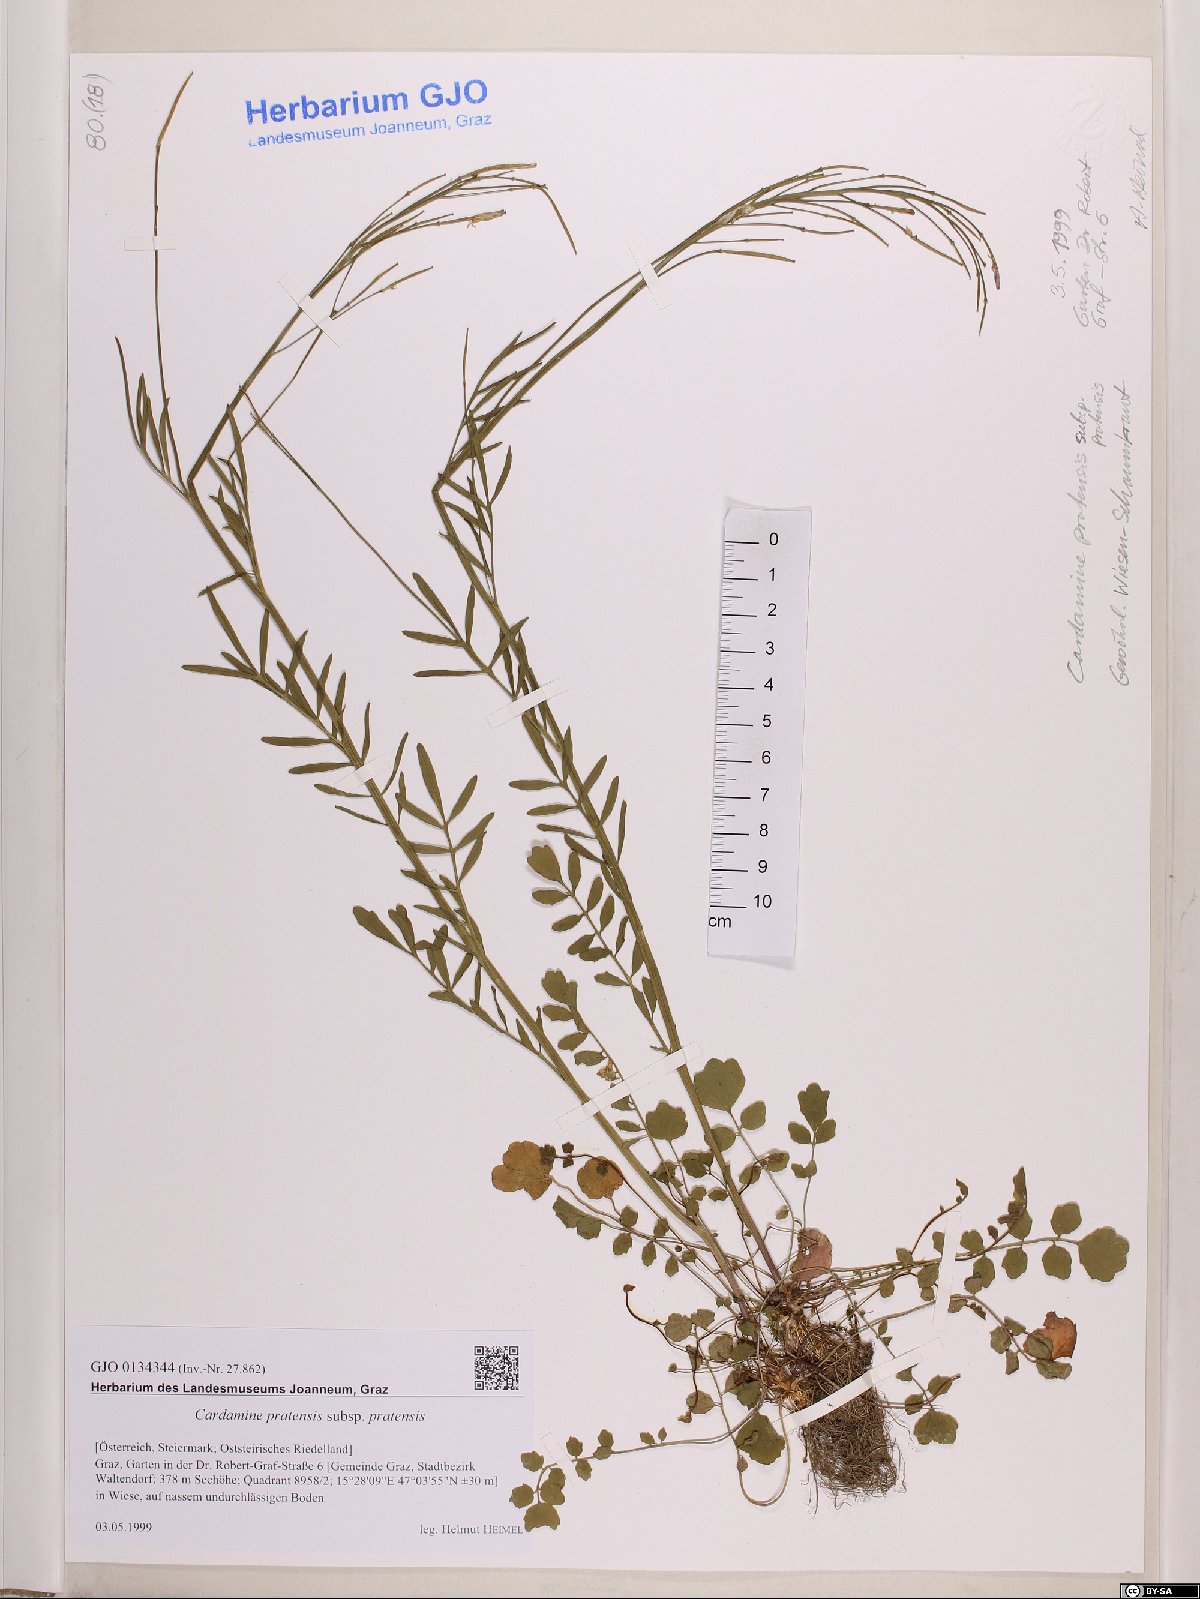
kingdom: Plantae
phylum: Tracheophyta
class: Magnoliopsida
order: Brassicales
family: Brassicaceae
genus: Cardamine
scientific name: Cardamine pratensis
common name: Cuckoo flower
